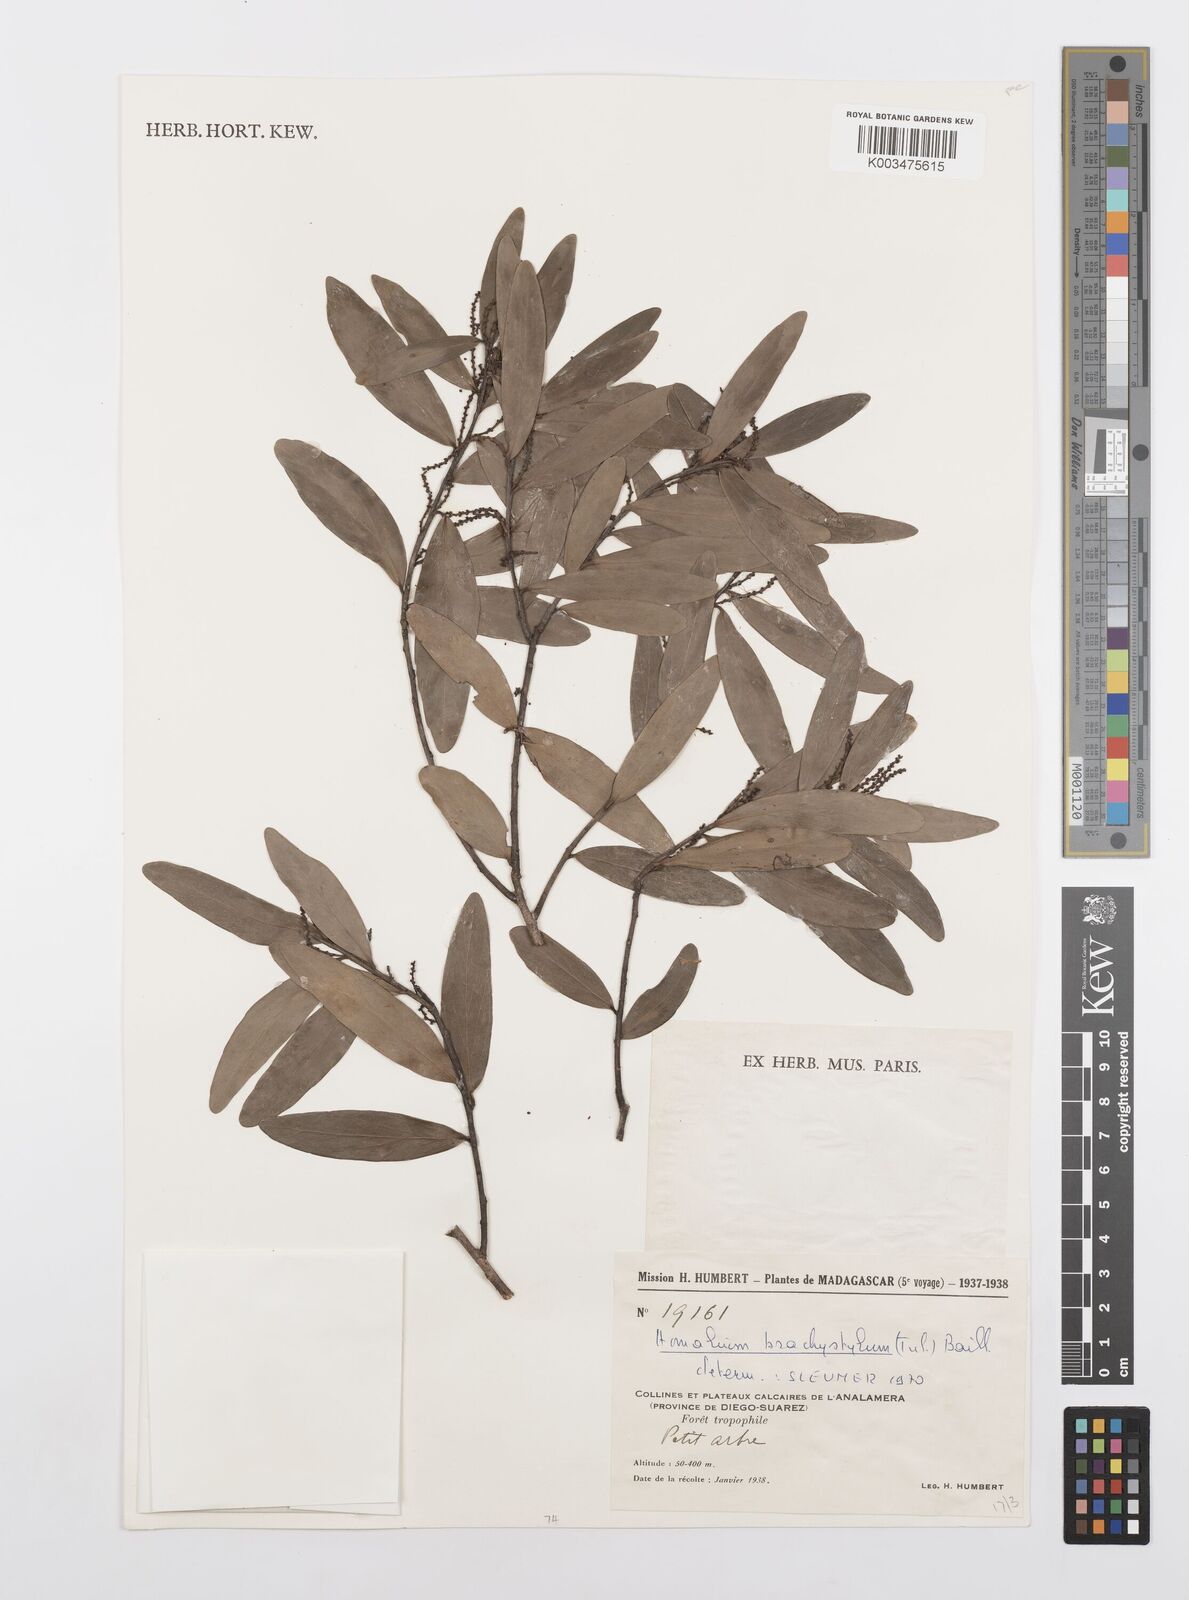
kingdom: Plantae
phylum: Tracheophyta
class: Magnoliopsida
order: Malpighiales
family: Salicaceae
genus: Homalium
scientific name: Homalium brachystylis
